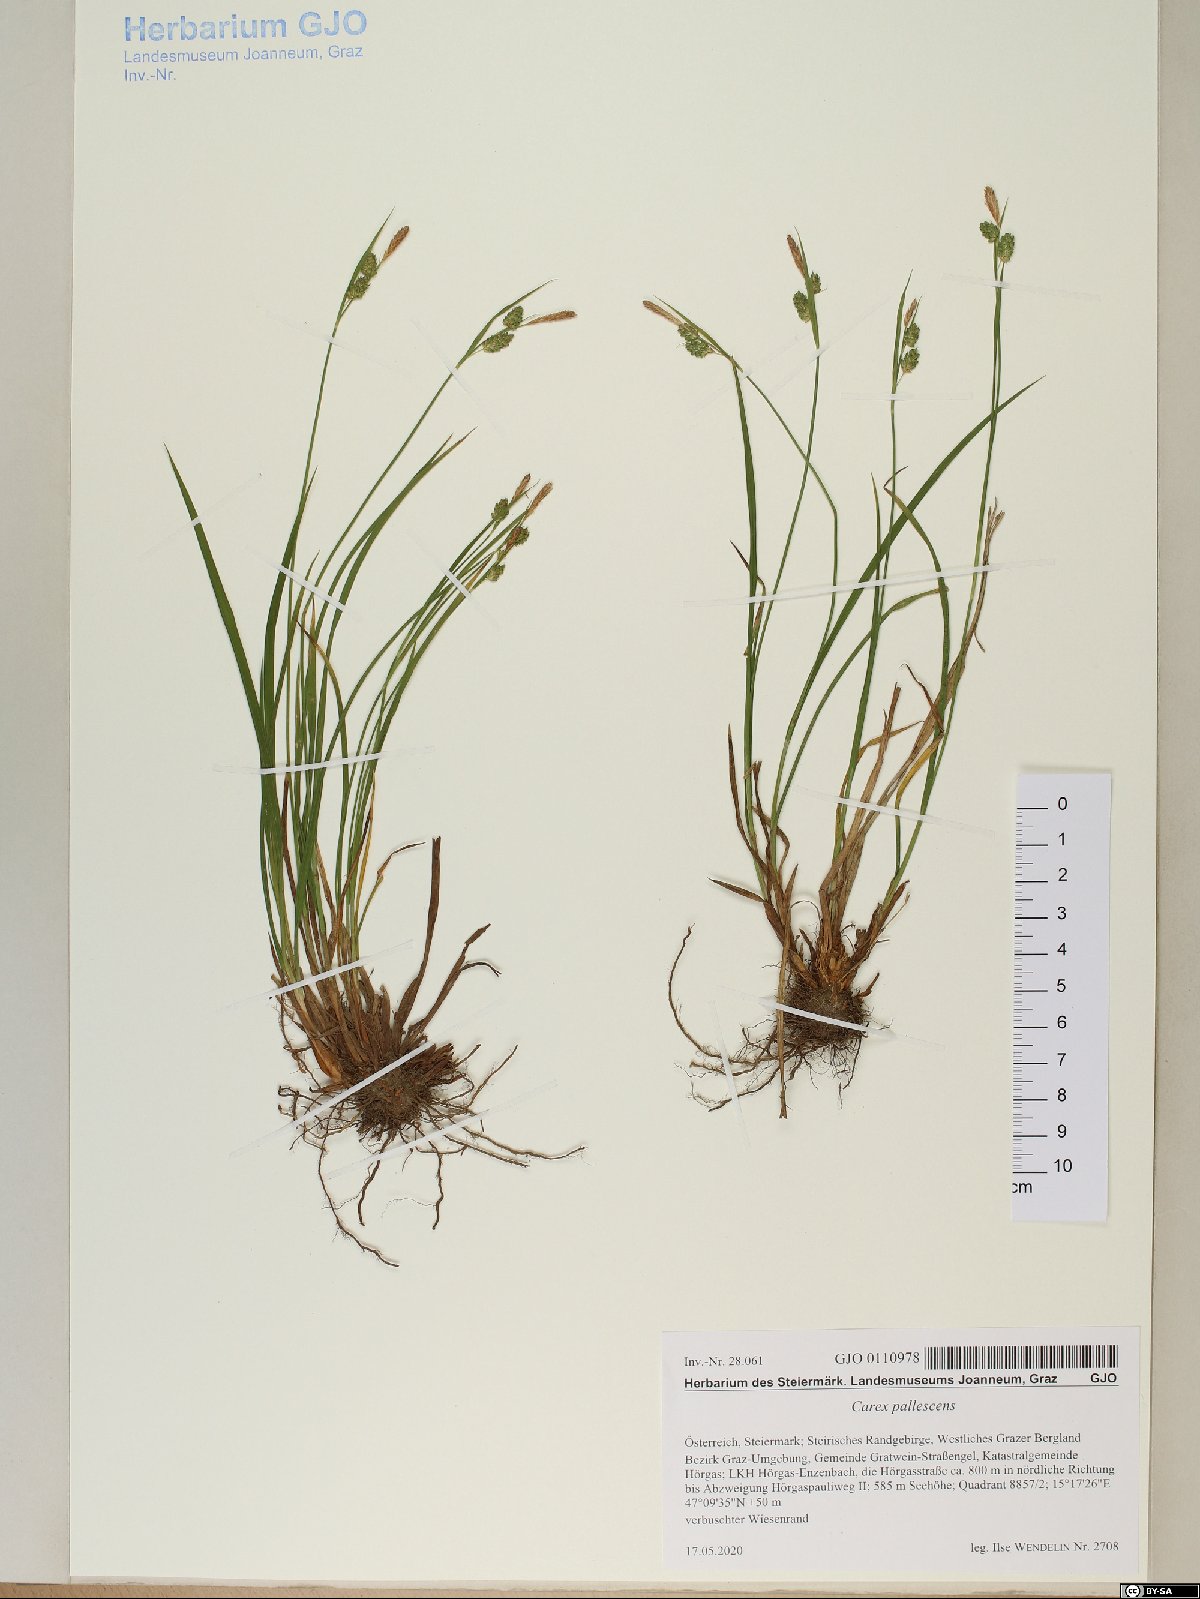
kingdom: Plantae
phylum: Tracheophyta
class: Liliopsida
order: Poales
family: Cyperaceae
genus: Carex
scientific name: Carex pallescens
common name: Pale sedge
